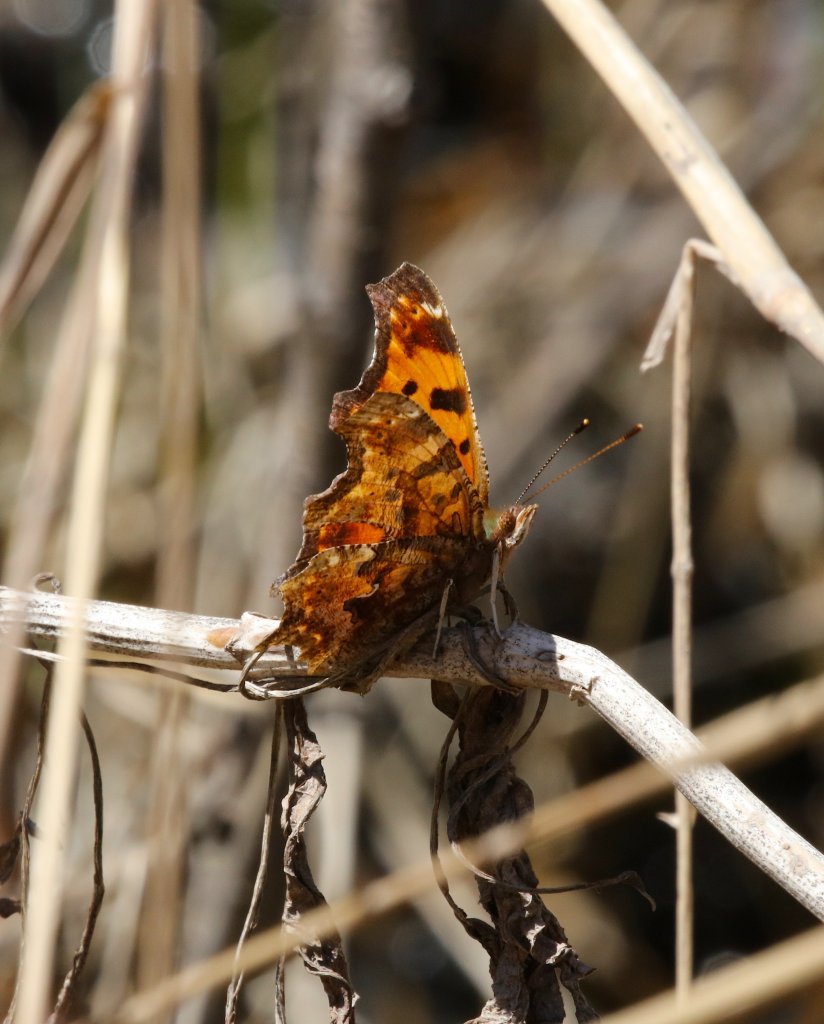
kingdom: Animalia
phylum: Arthropoda
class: Insecta
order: Lepidoptera
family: Nymphalidae
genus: Polygonia
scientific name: Polygonia comma
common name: Eastern Comma
